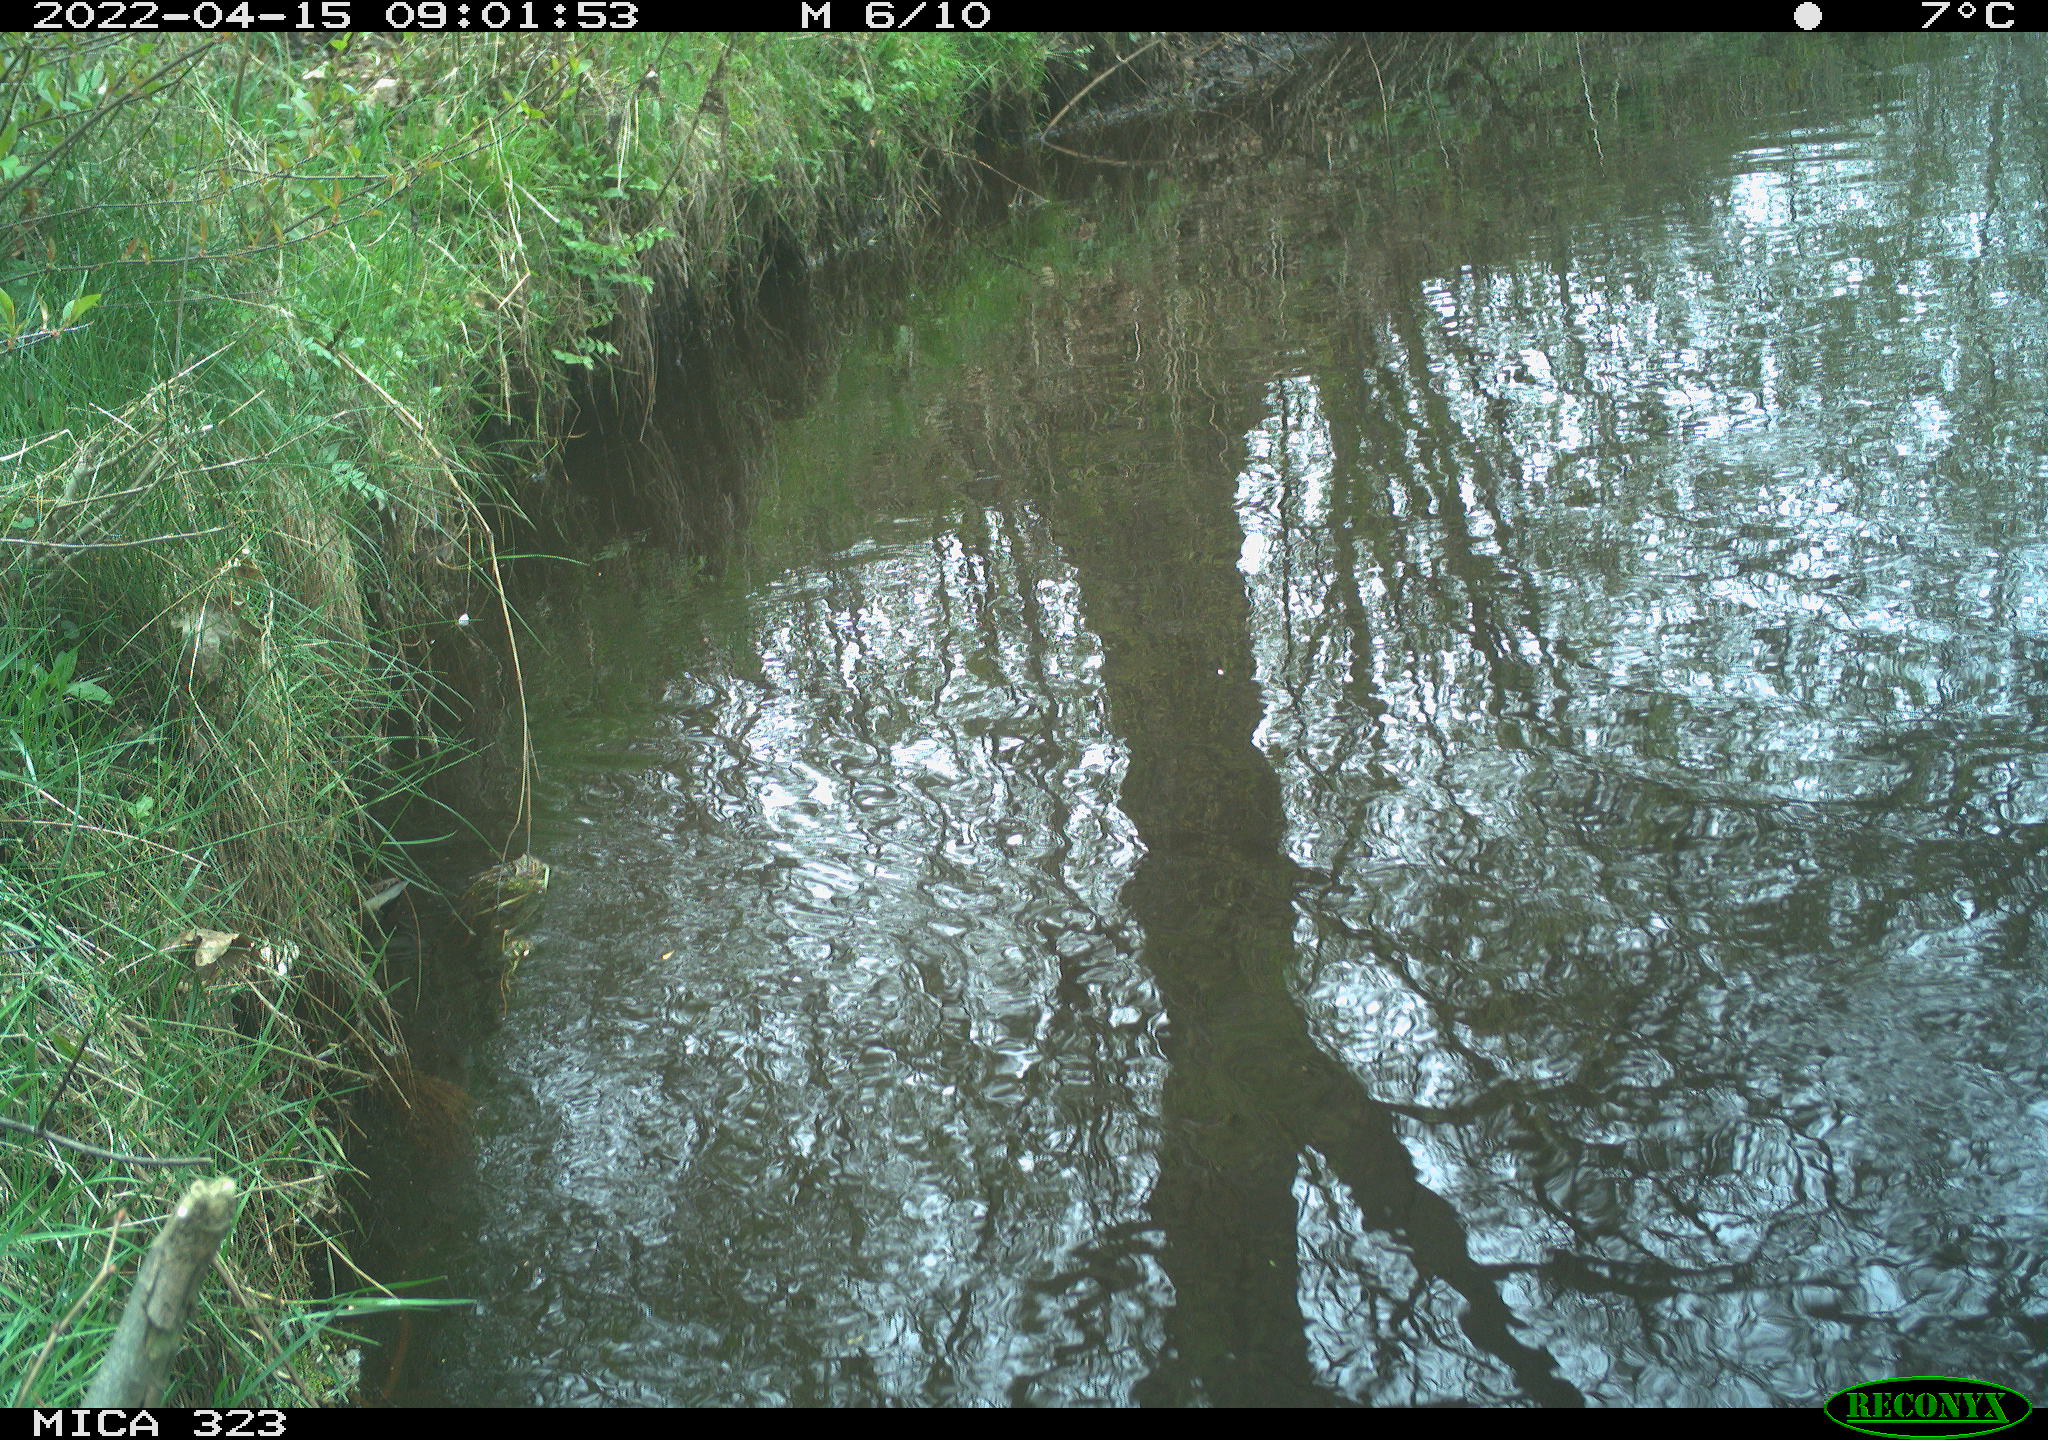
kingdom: Animalia
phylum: Chordata
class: Aves
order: Gruiformes
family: Rallidae
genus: Gallinula
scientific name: Gallinula chloropus
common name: Common moorhen
